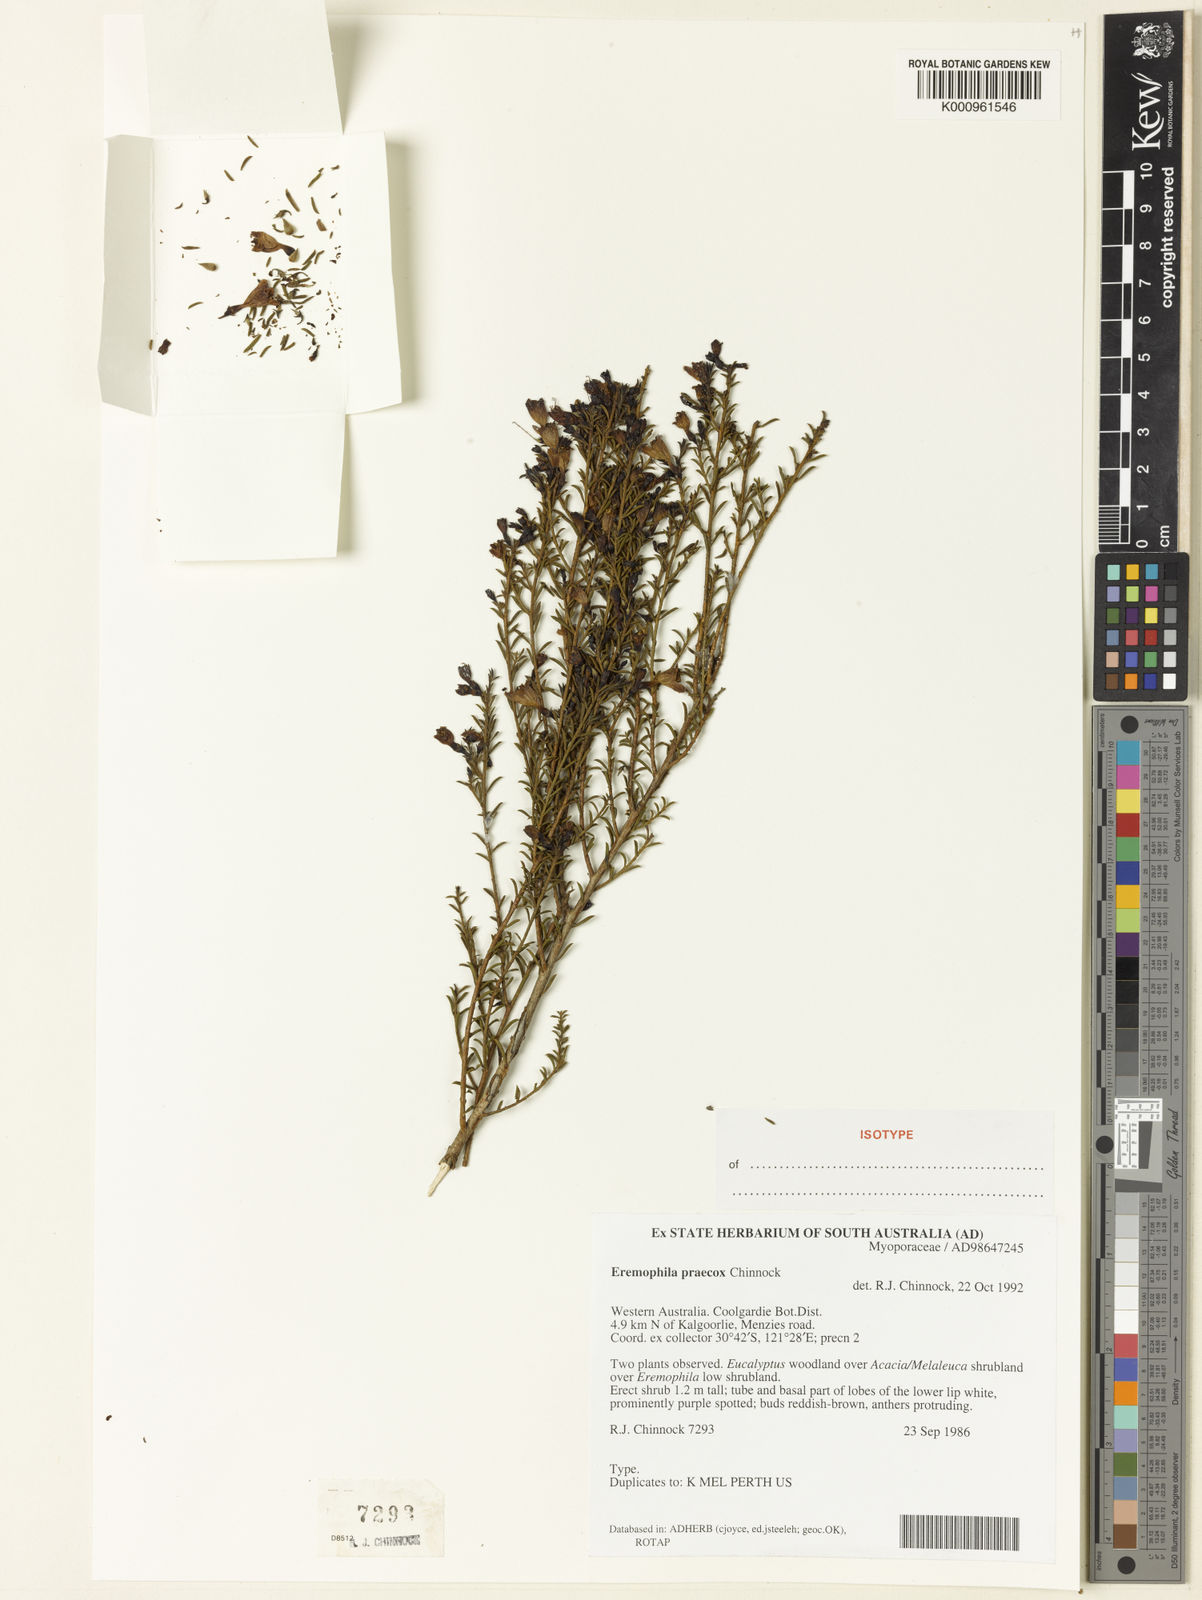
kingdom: Plantae
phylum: Tracheophyta
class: Magnoliopsida
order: Lamiales
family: Scrophulariaceae
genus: Eremophila
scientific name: Eremophila praecox
